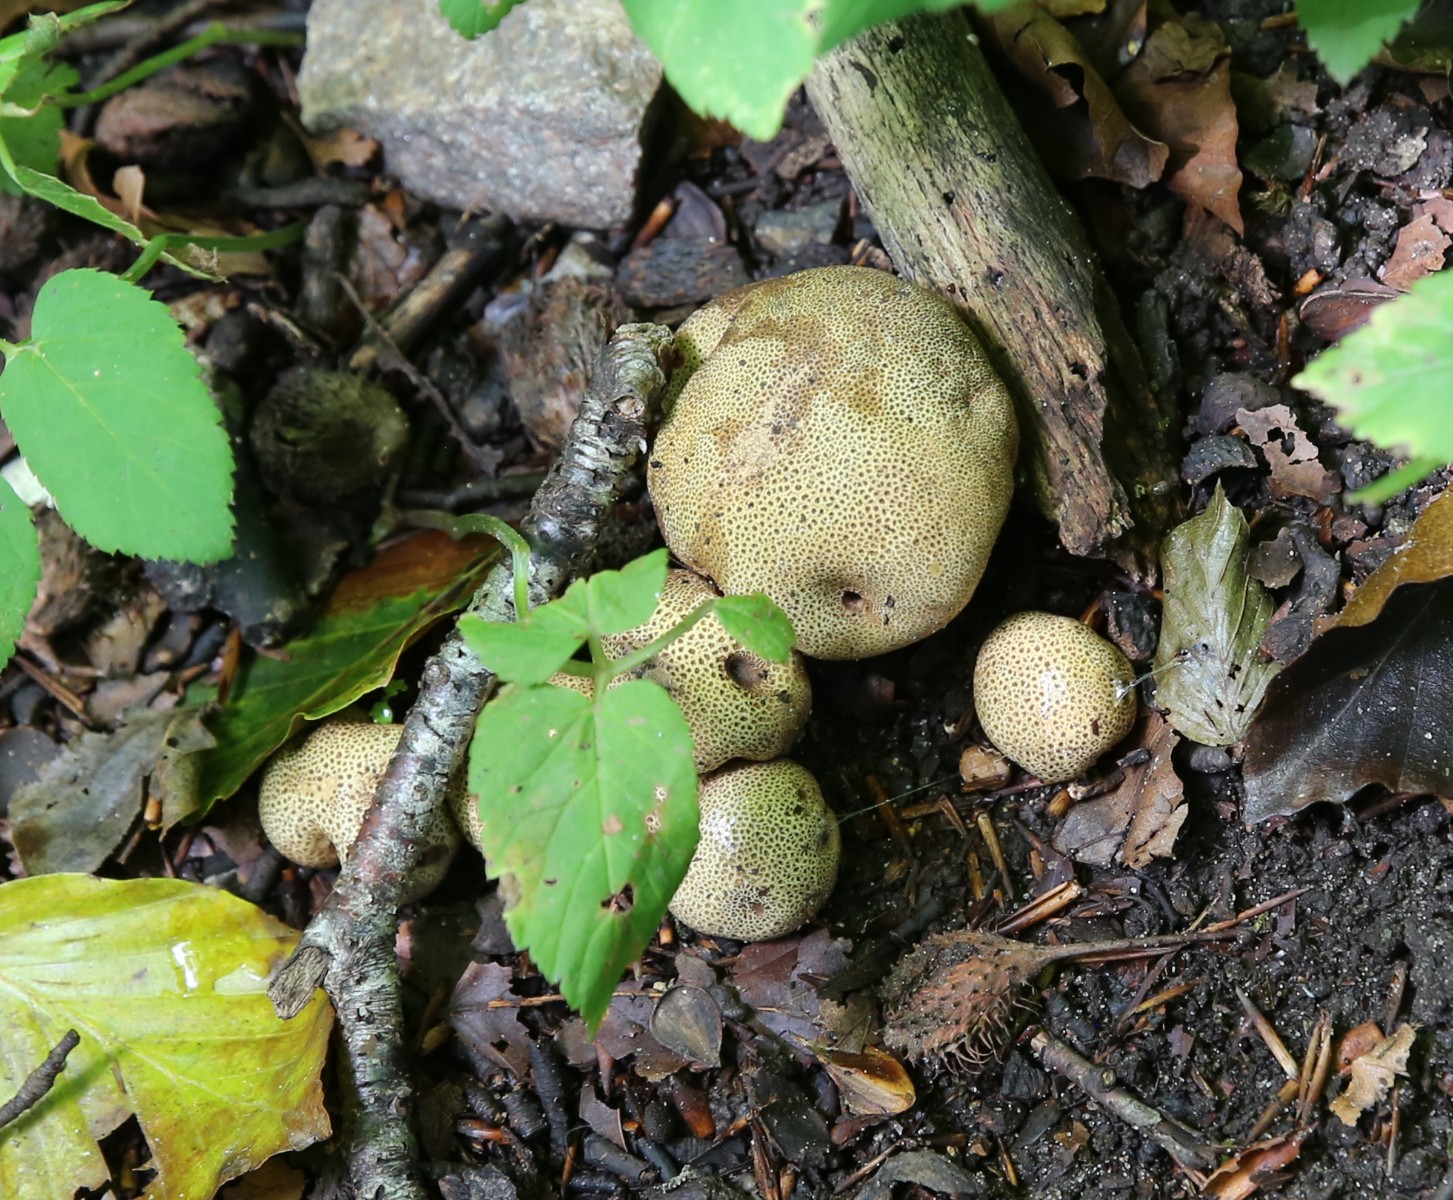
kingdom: Fungi
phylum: Basidiomycota
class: Agaricomycetes
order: Boletales
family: Sclerodermataceae
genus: Scleroderma
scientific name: Scleroderma
